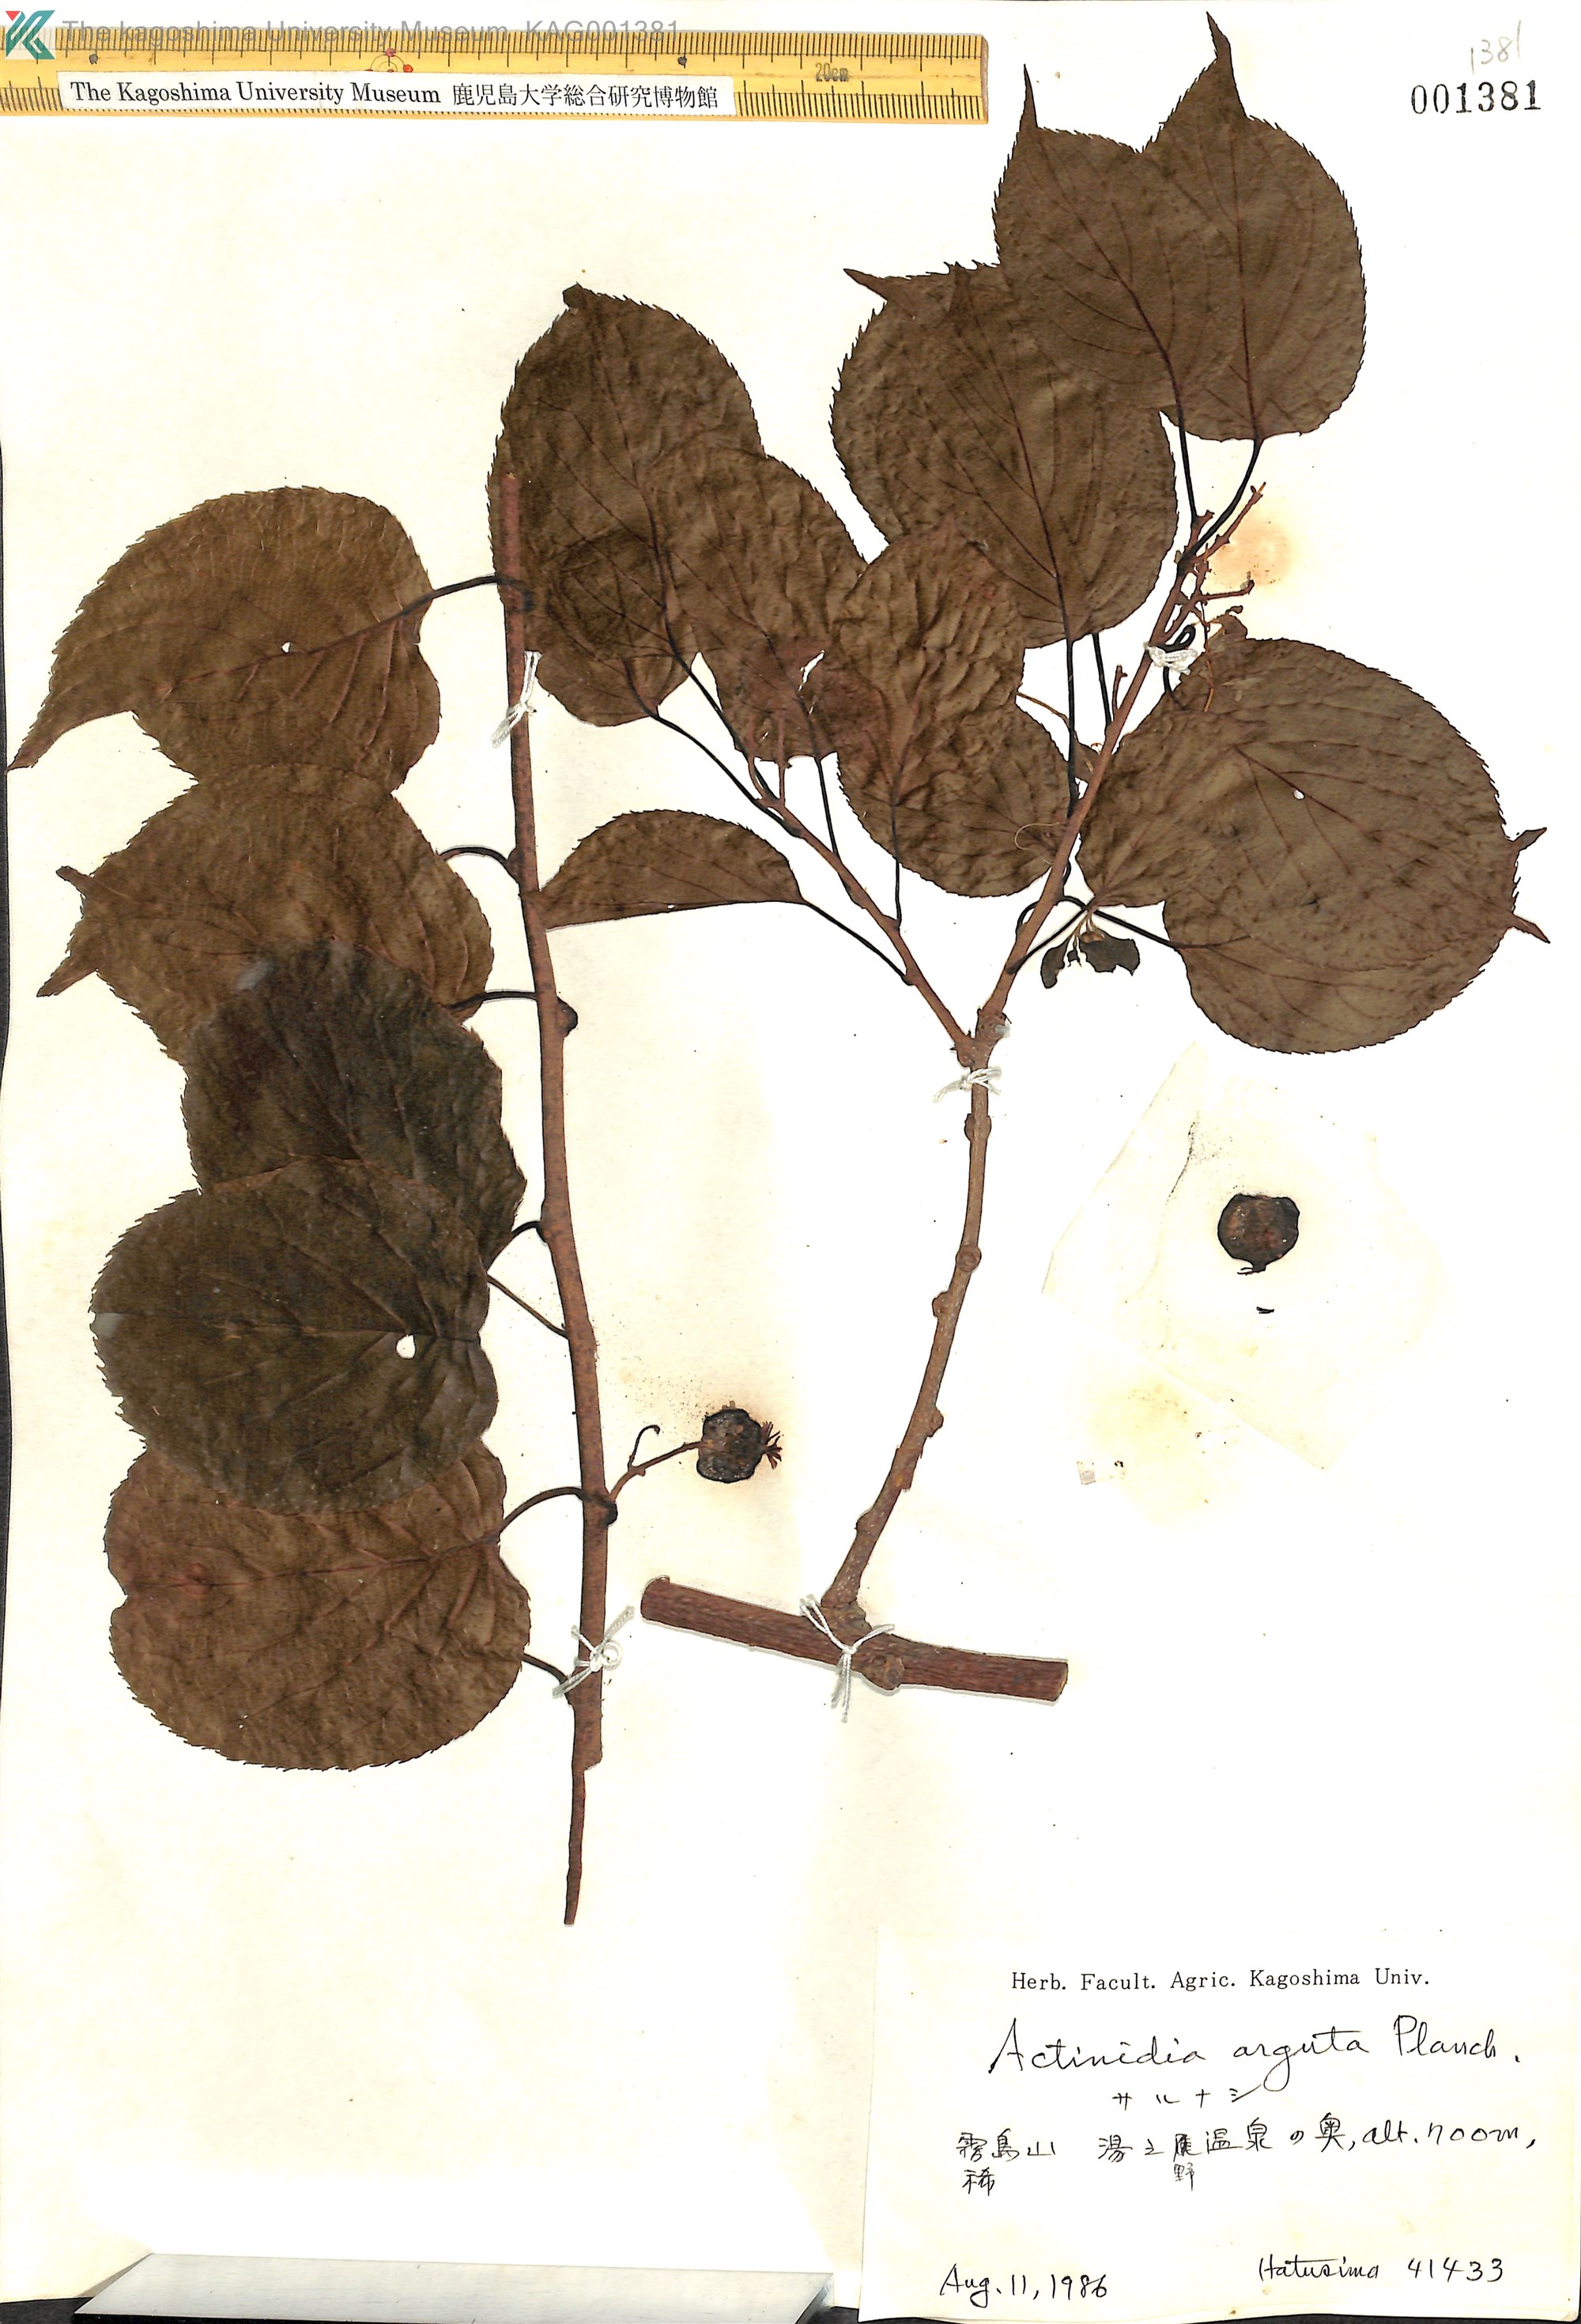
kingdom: Plantae
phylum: Tracheophyta
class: Magnoliopsida
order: Ericales
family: Actinidiaceae
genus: Actinidia
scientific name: Actinidia arguta
